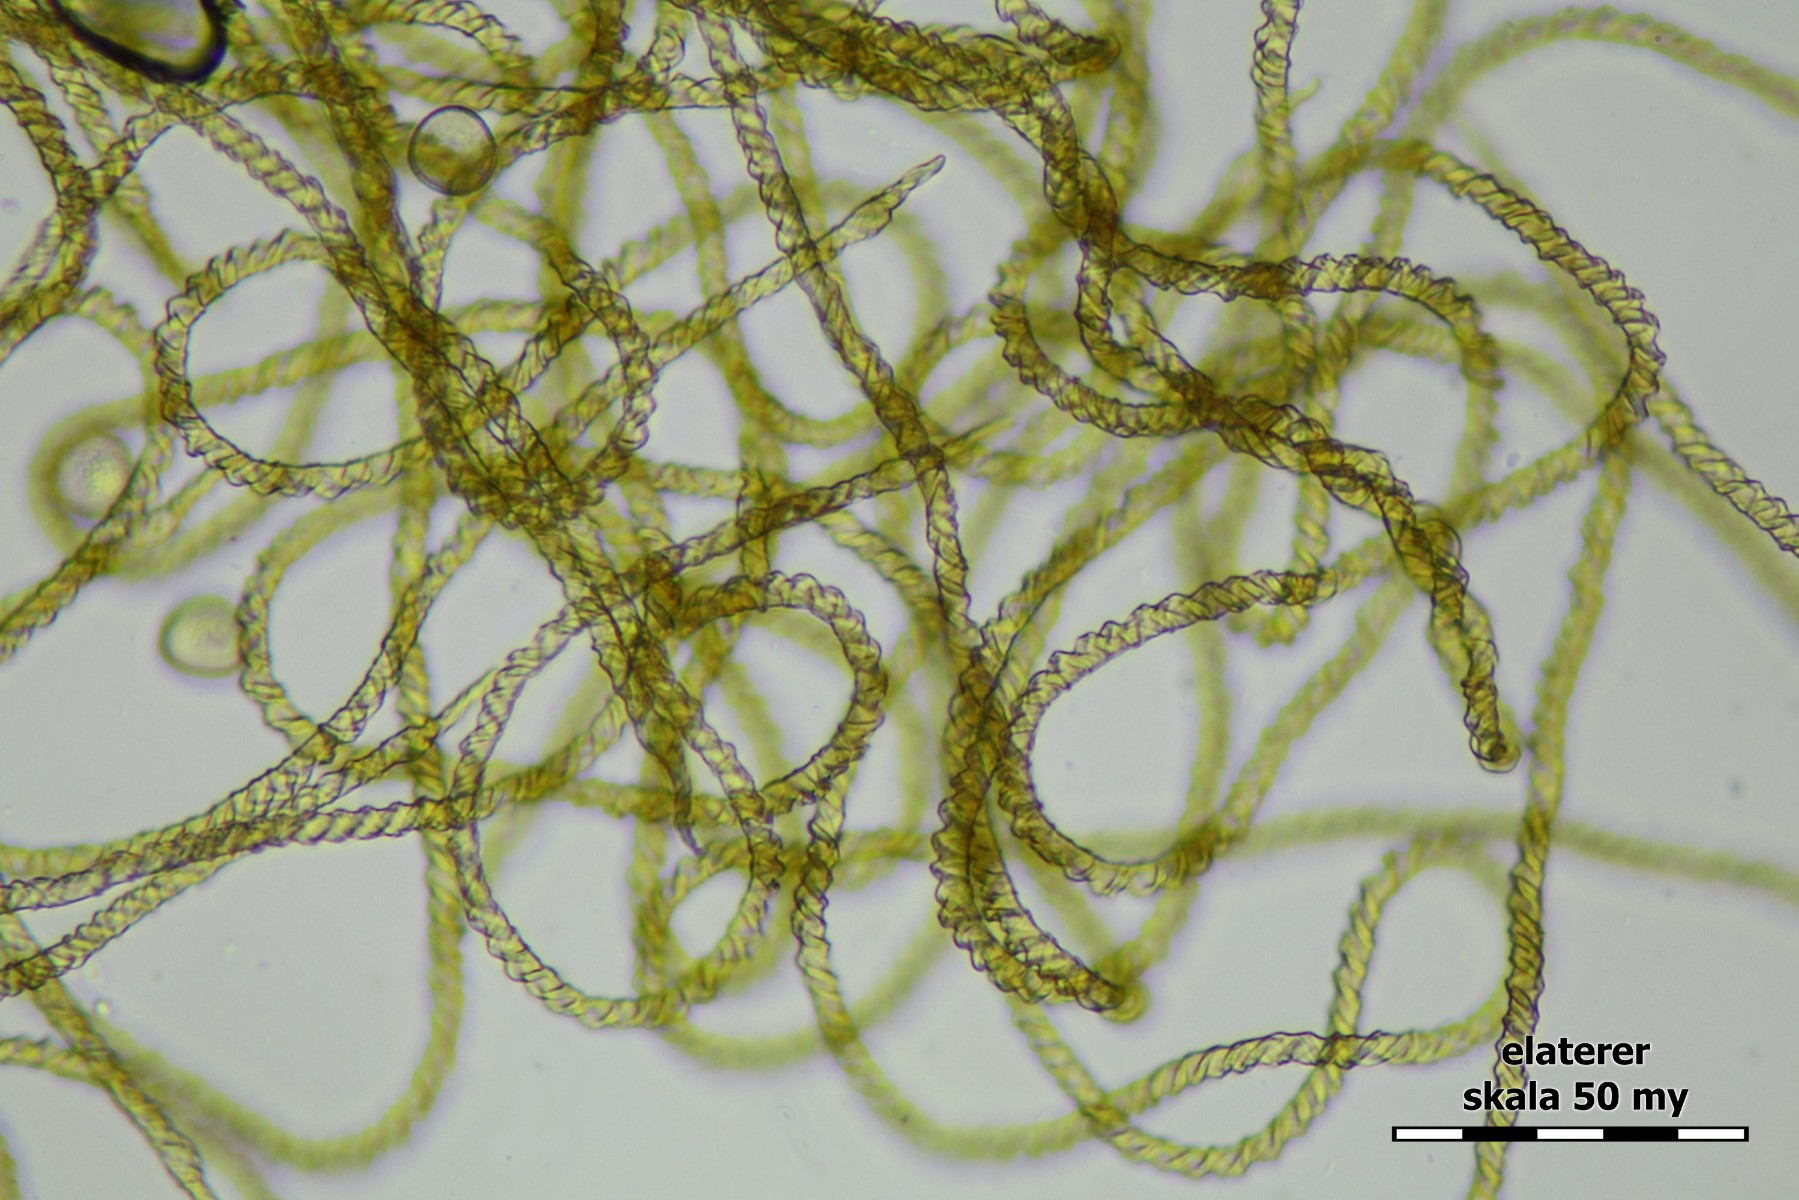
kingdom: Protozoa
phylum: Mycetozoa
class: Myxomycetes
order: Trichiales
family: Trichiaceae
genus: Trichia
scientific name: Trichia varia
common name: foranderlig hårbold
